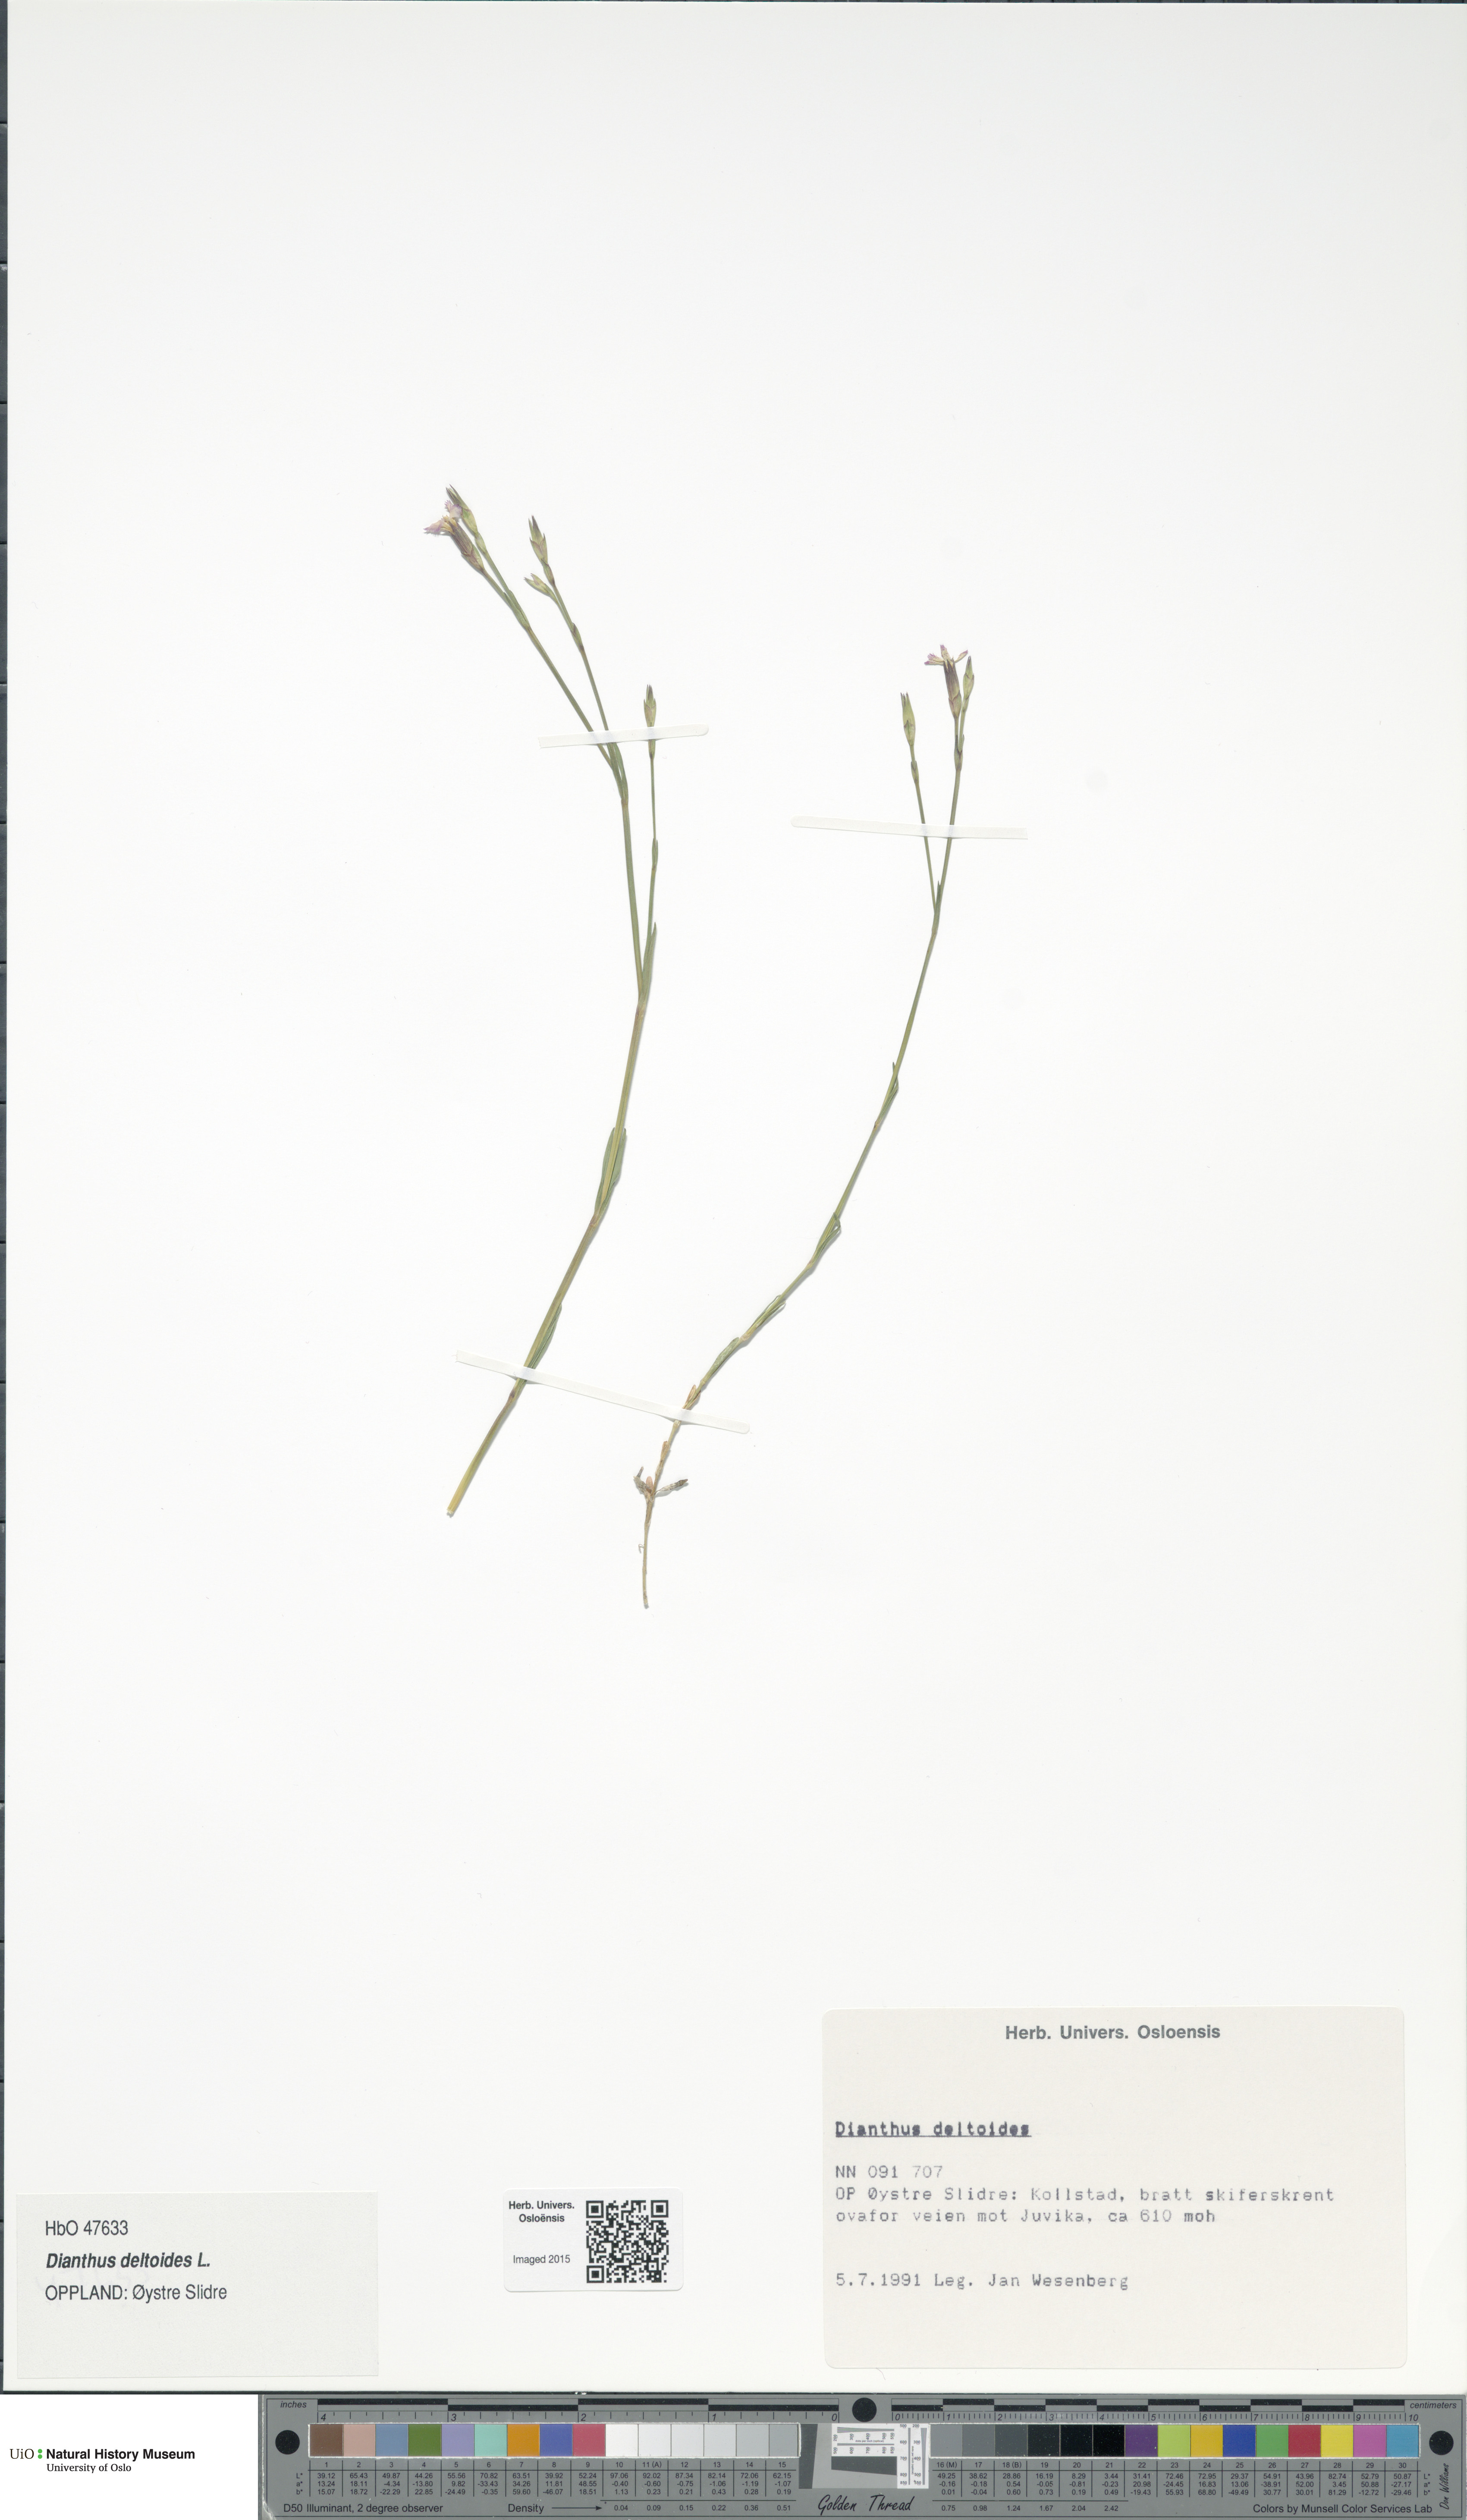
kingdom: Plantae
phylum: Tracheophyta
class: Magnoliopsida
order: Caryophyllales
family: Caryophyllaceae
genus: Dianthus
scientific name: Dianthus deltoides
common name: Maiden pink
